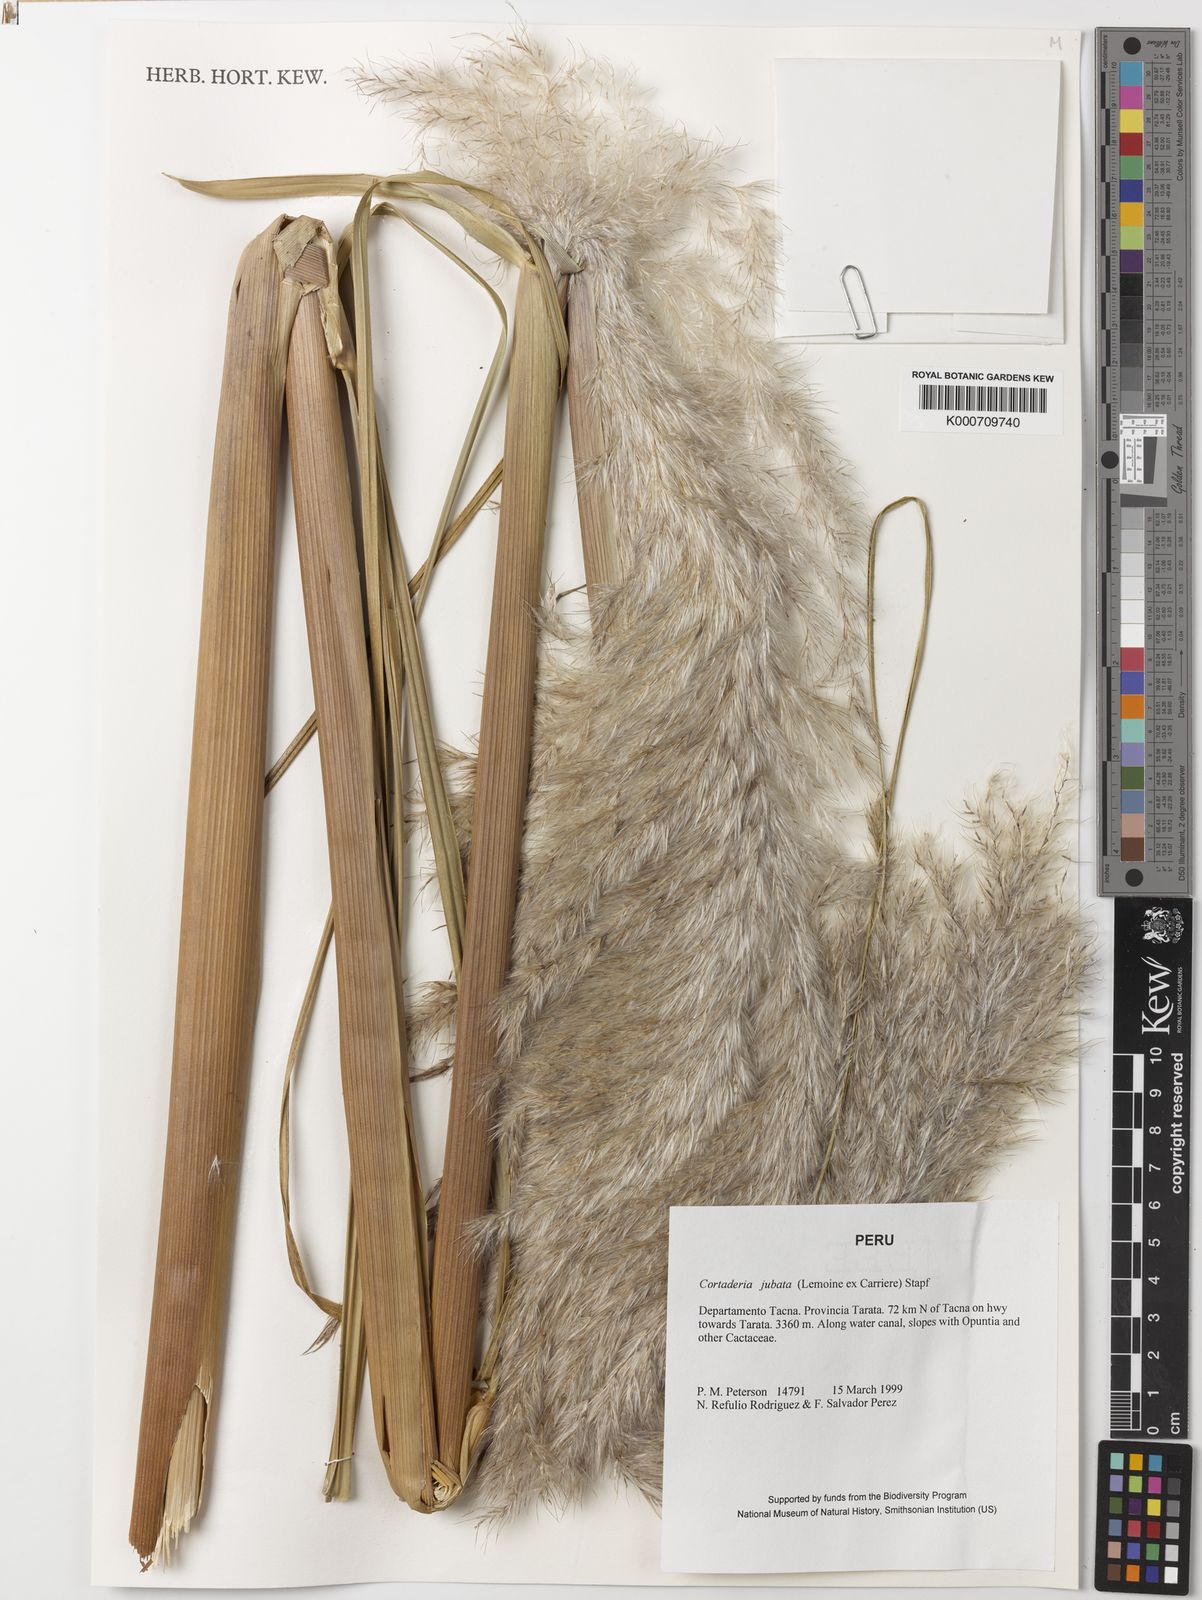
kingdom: Plantae
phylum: Tracheophyta
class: Liliopsida
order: Poales
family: Poaceae
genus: Cortaderia
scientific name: Cortaderia jubata
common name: Purple pampas grass
